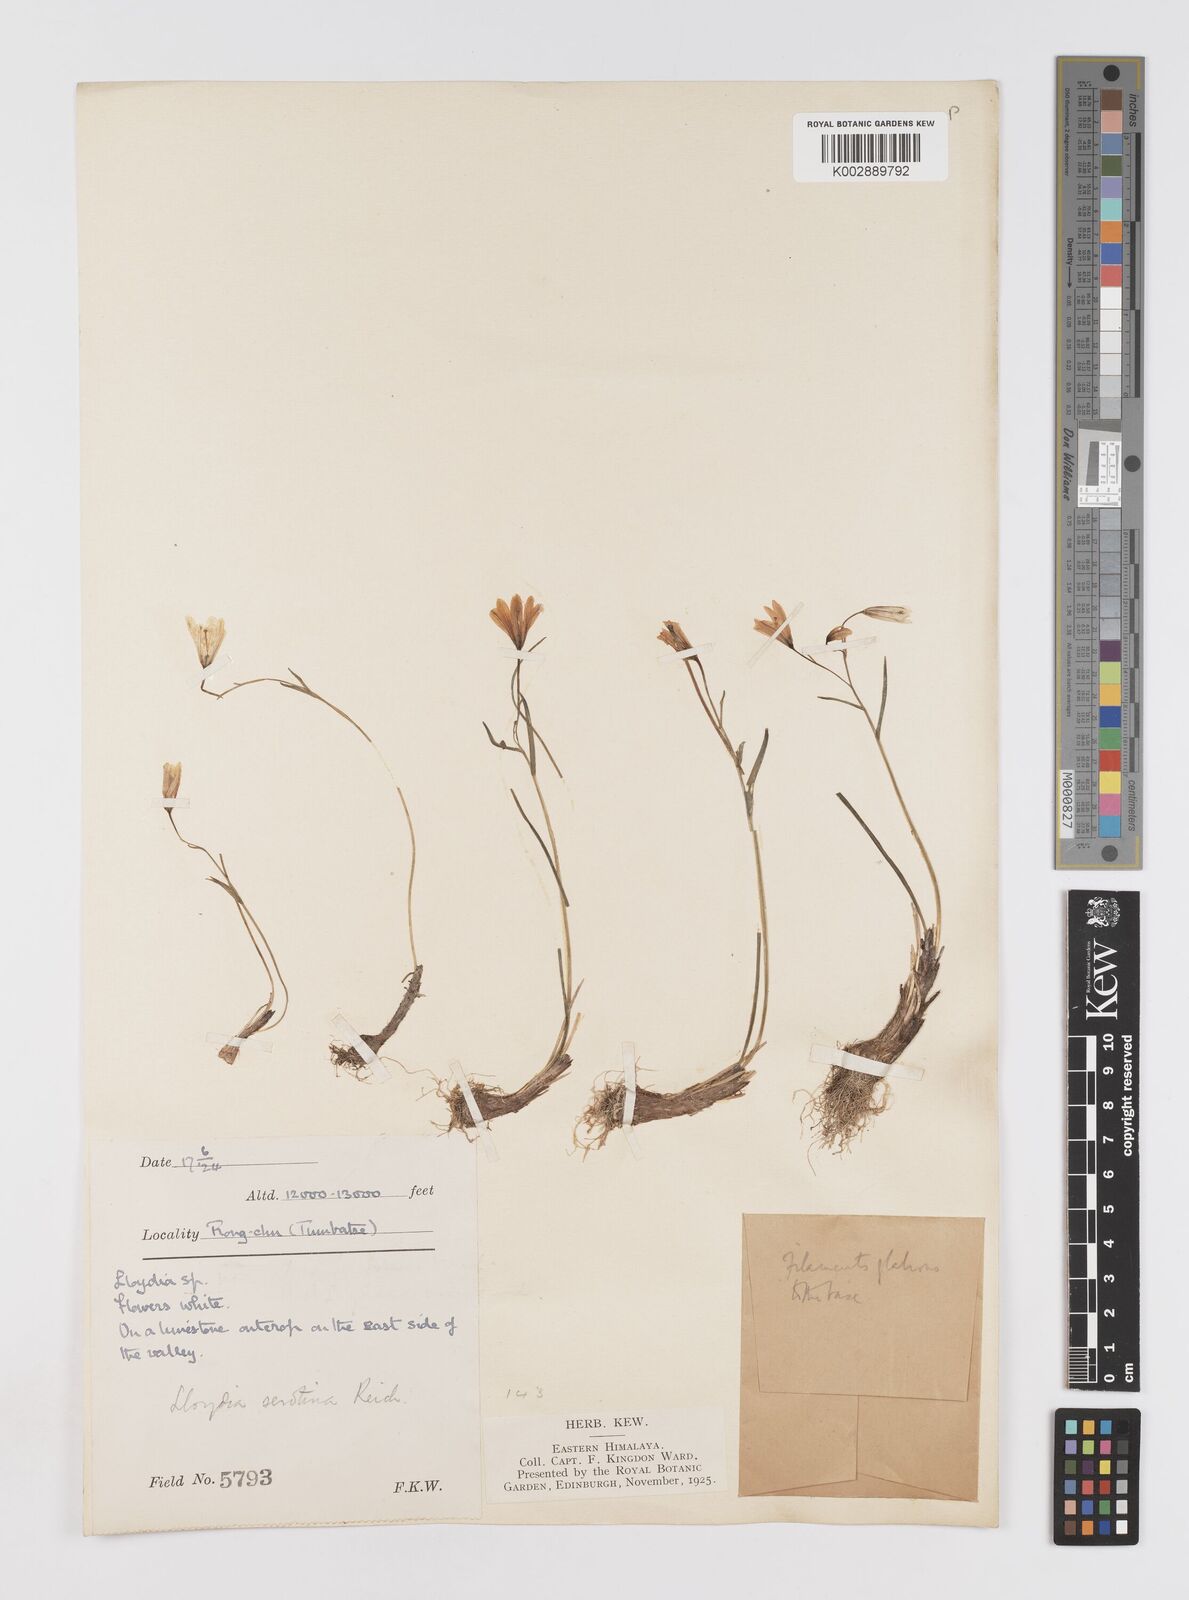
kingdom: Plantae
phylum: Tracheophyta
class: Liliopsida
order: Liliales
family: Liliaceae
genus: Gagea
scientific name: Gagea serotina
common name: Snowdon lily
